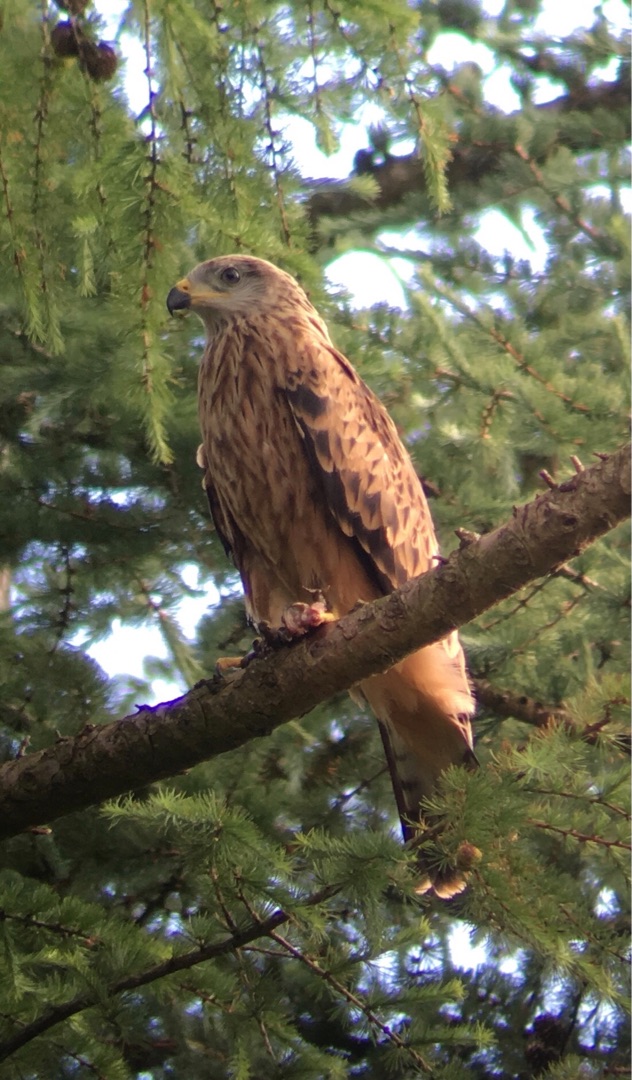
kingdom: Animalia
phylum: Chordata
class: Aves
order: Accipitriformes
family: Accipitridae
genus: Milvus
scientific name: Milvus milvus
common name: Rød glente
